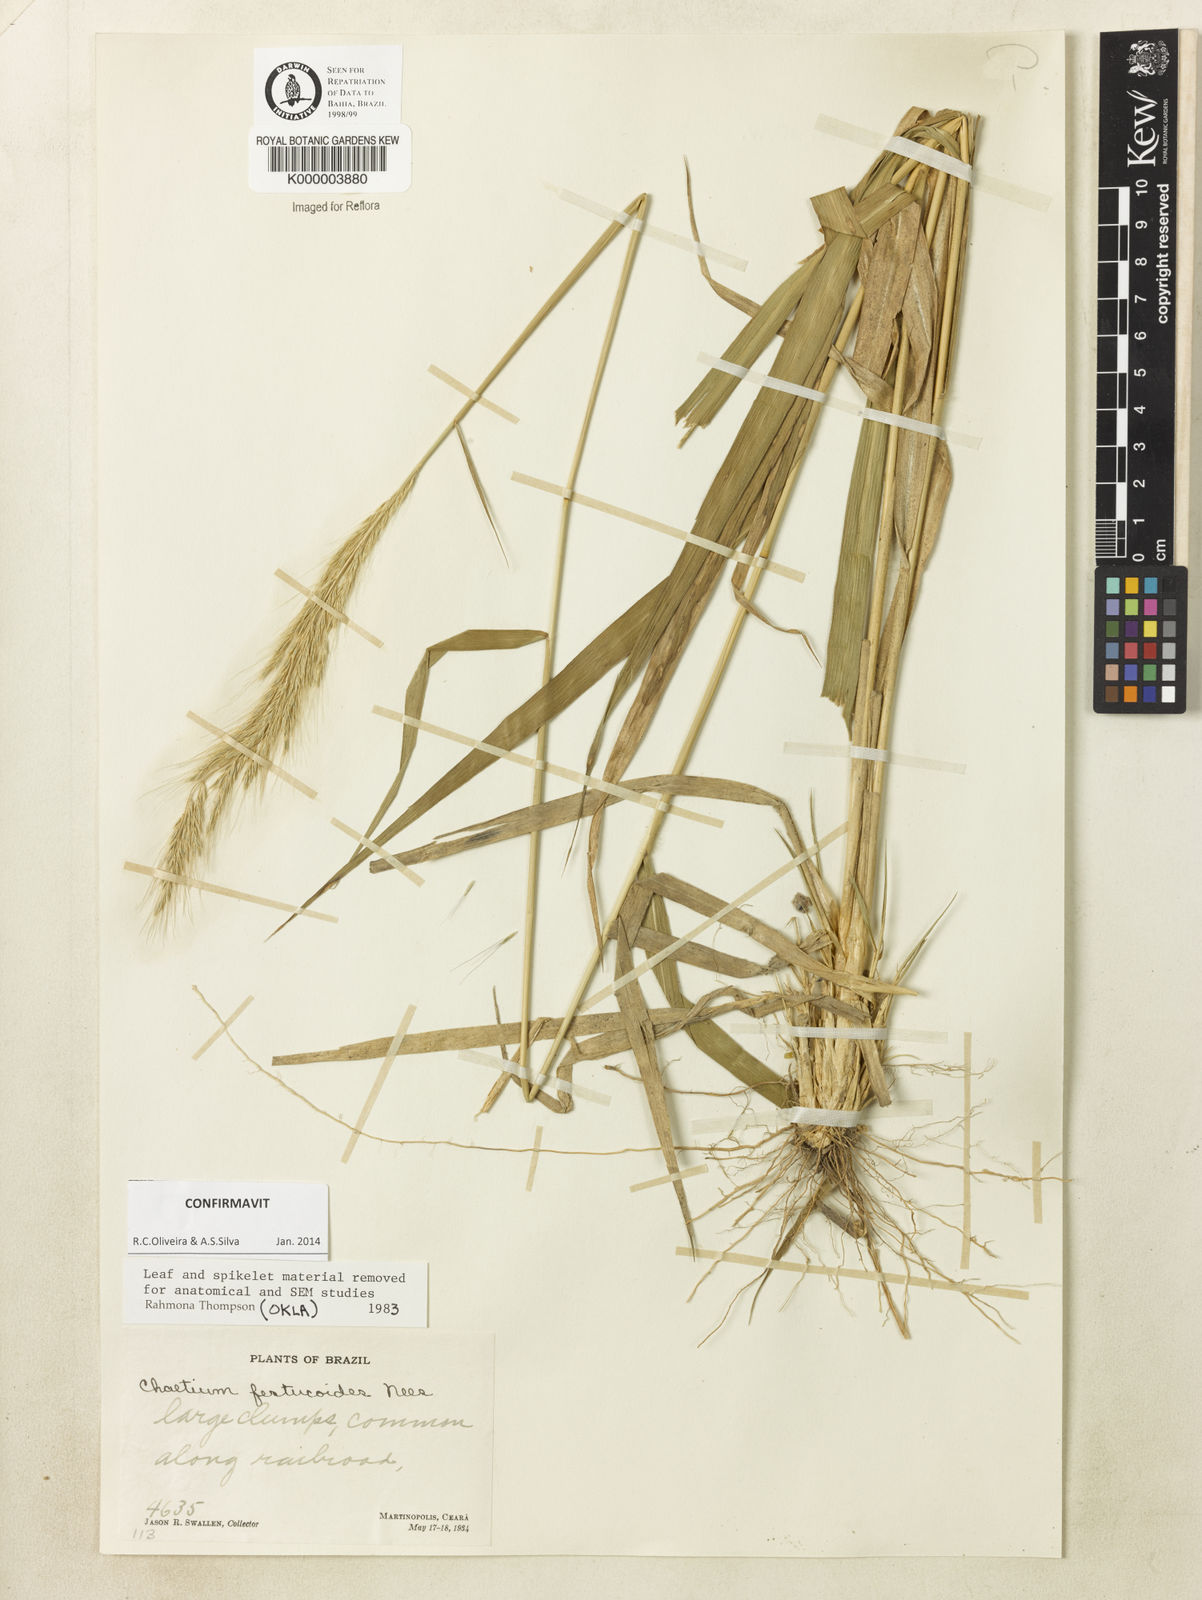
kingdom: Plantae
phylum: Tracheophyta
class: Liliopsida
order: Poales
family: Poaceae
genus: Chaetium
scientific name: Chaetium festucoides
